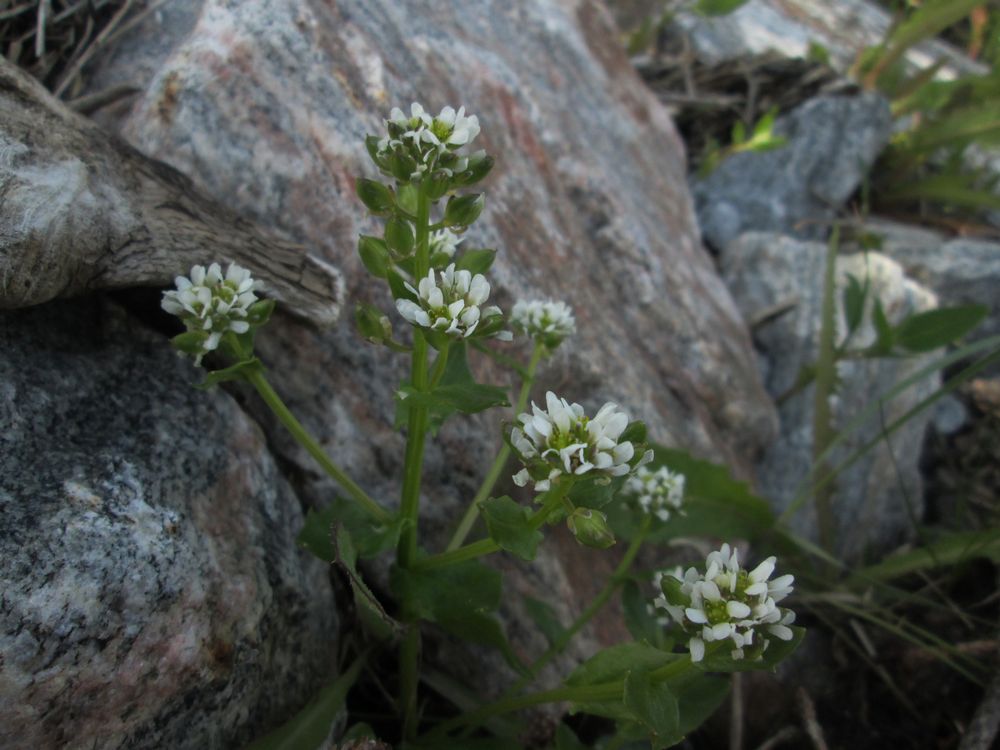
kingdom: Plantae
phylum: Tracheophyta
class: Magnoliopsida
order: Brassicales
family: Brassicaceae
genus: Cochlearia
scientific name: Cochlearia groenlandica
